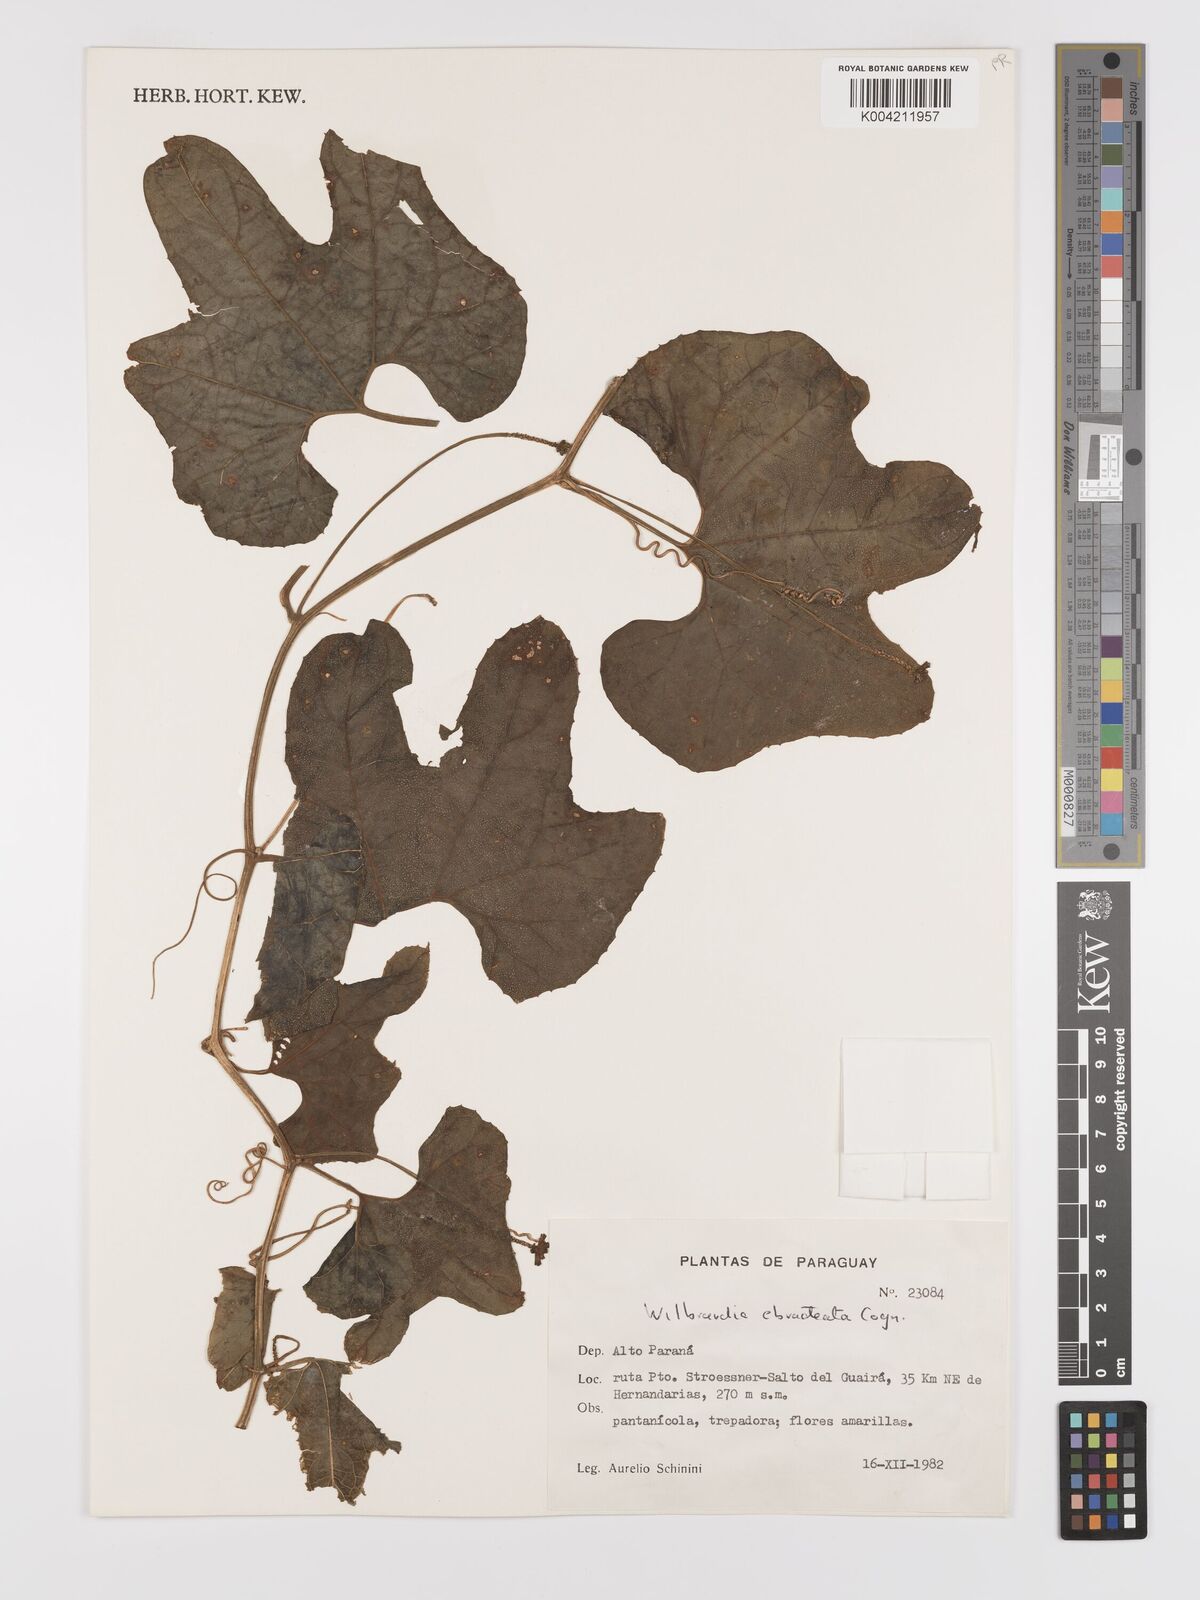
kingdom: Plantae
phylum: Tracheophyta
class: Magnoliopsida
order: Cucurbitales
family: Cucurbitaceae
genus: Wilbrandia
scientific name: Wilbrandia ebracteata
